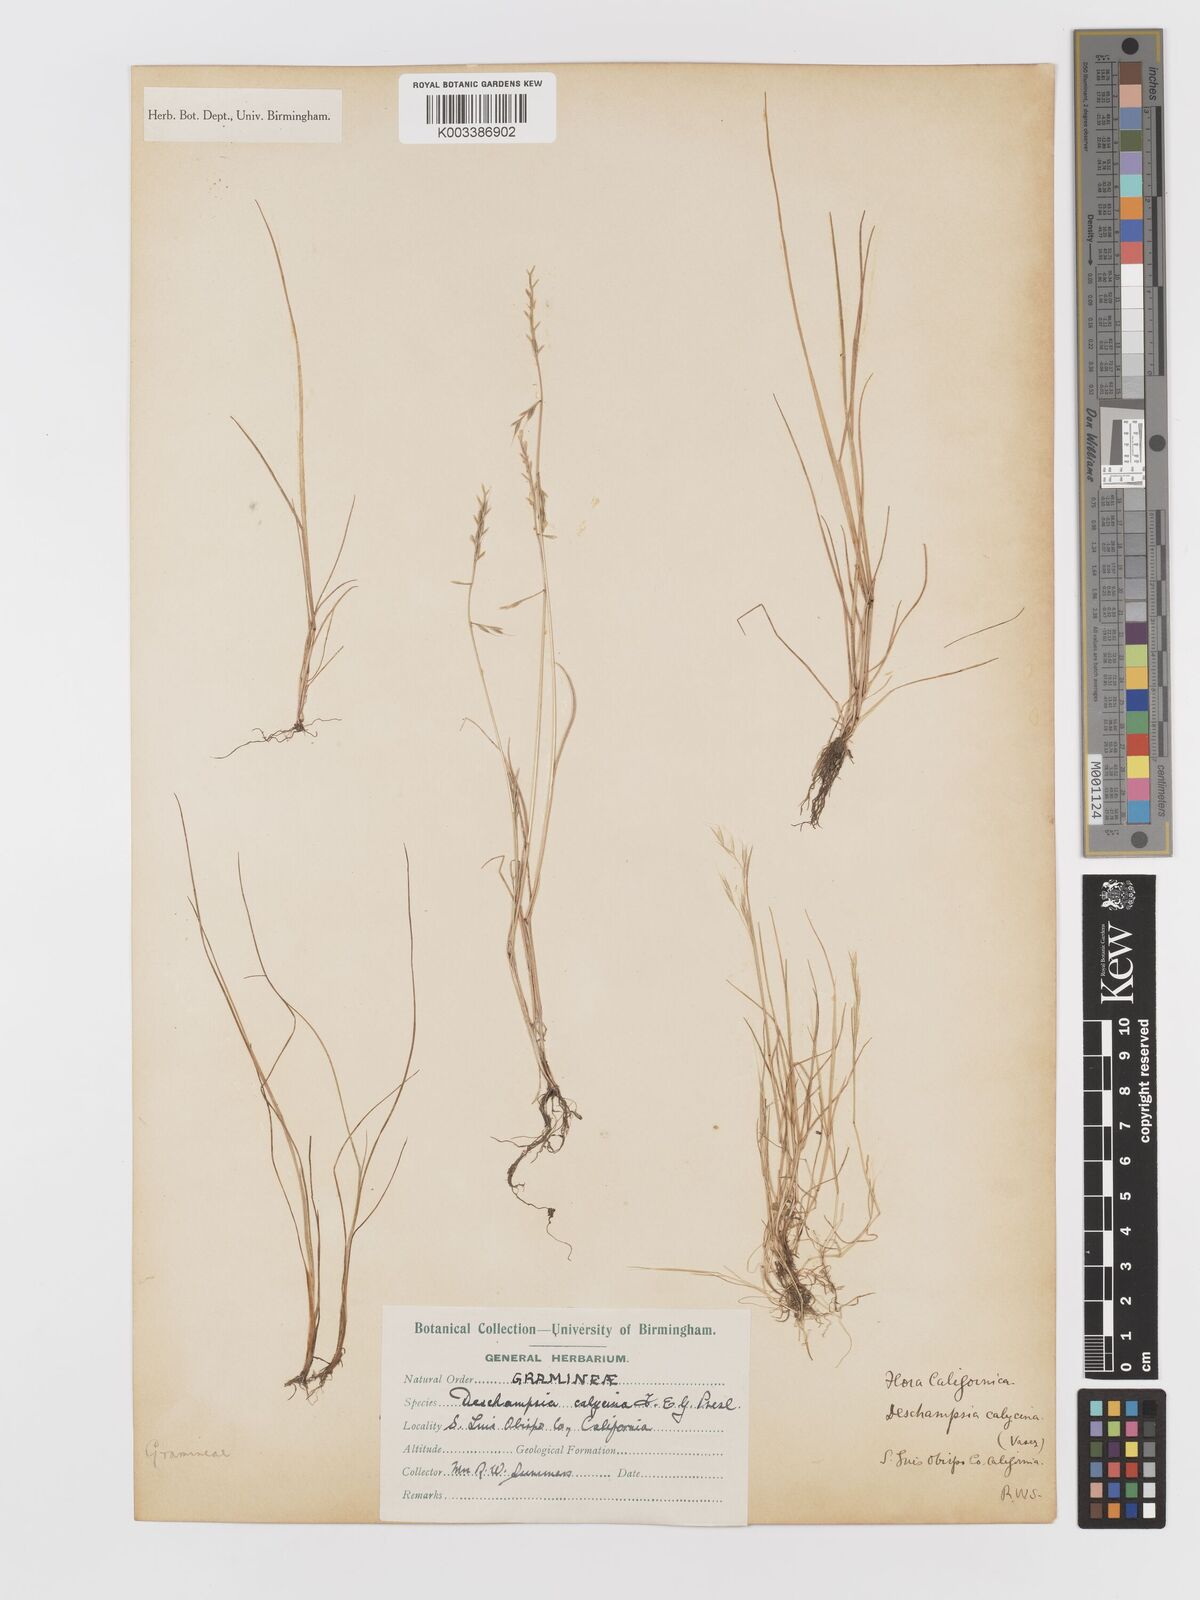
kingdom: Plantae
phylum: Tracheophyta
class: Liliopsida
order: Poales
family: Poaceae
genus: Deschampsia
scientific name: Deschampsia danthonioides
